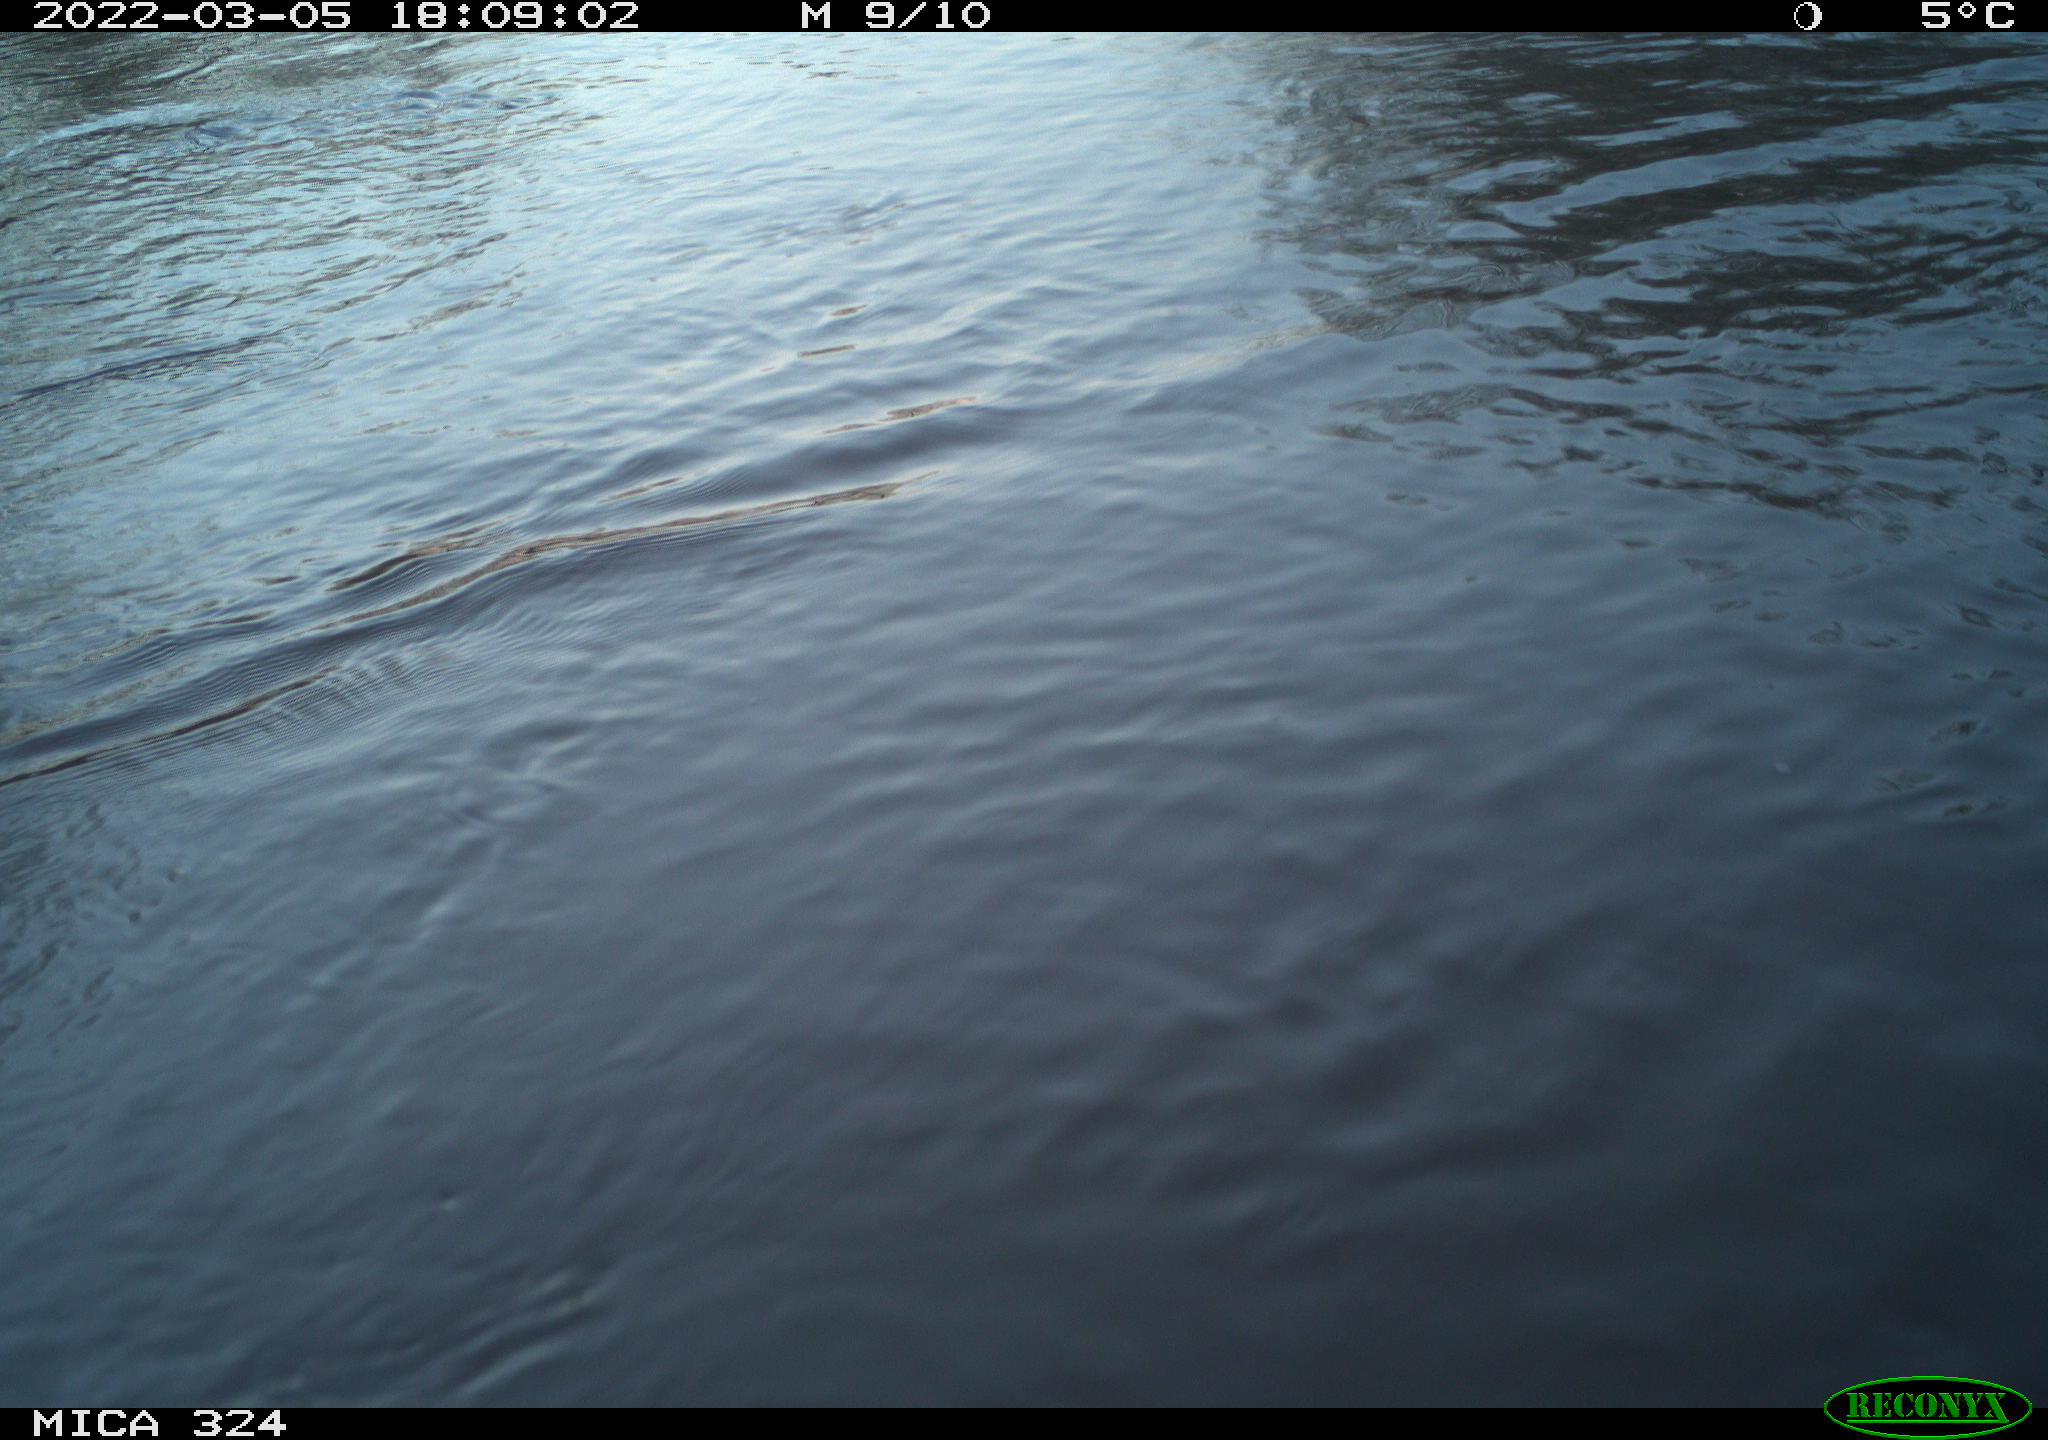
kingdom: Animalia
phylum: Chordata
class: Aves
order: Gruiformes
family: Rallidae
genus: Gallinula
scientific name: Gallinula chloropus
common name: Common moorhen
